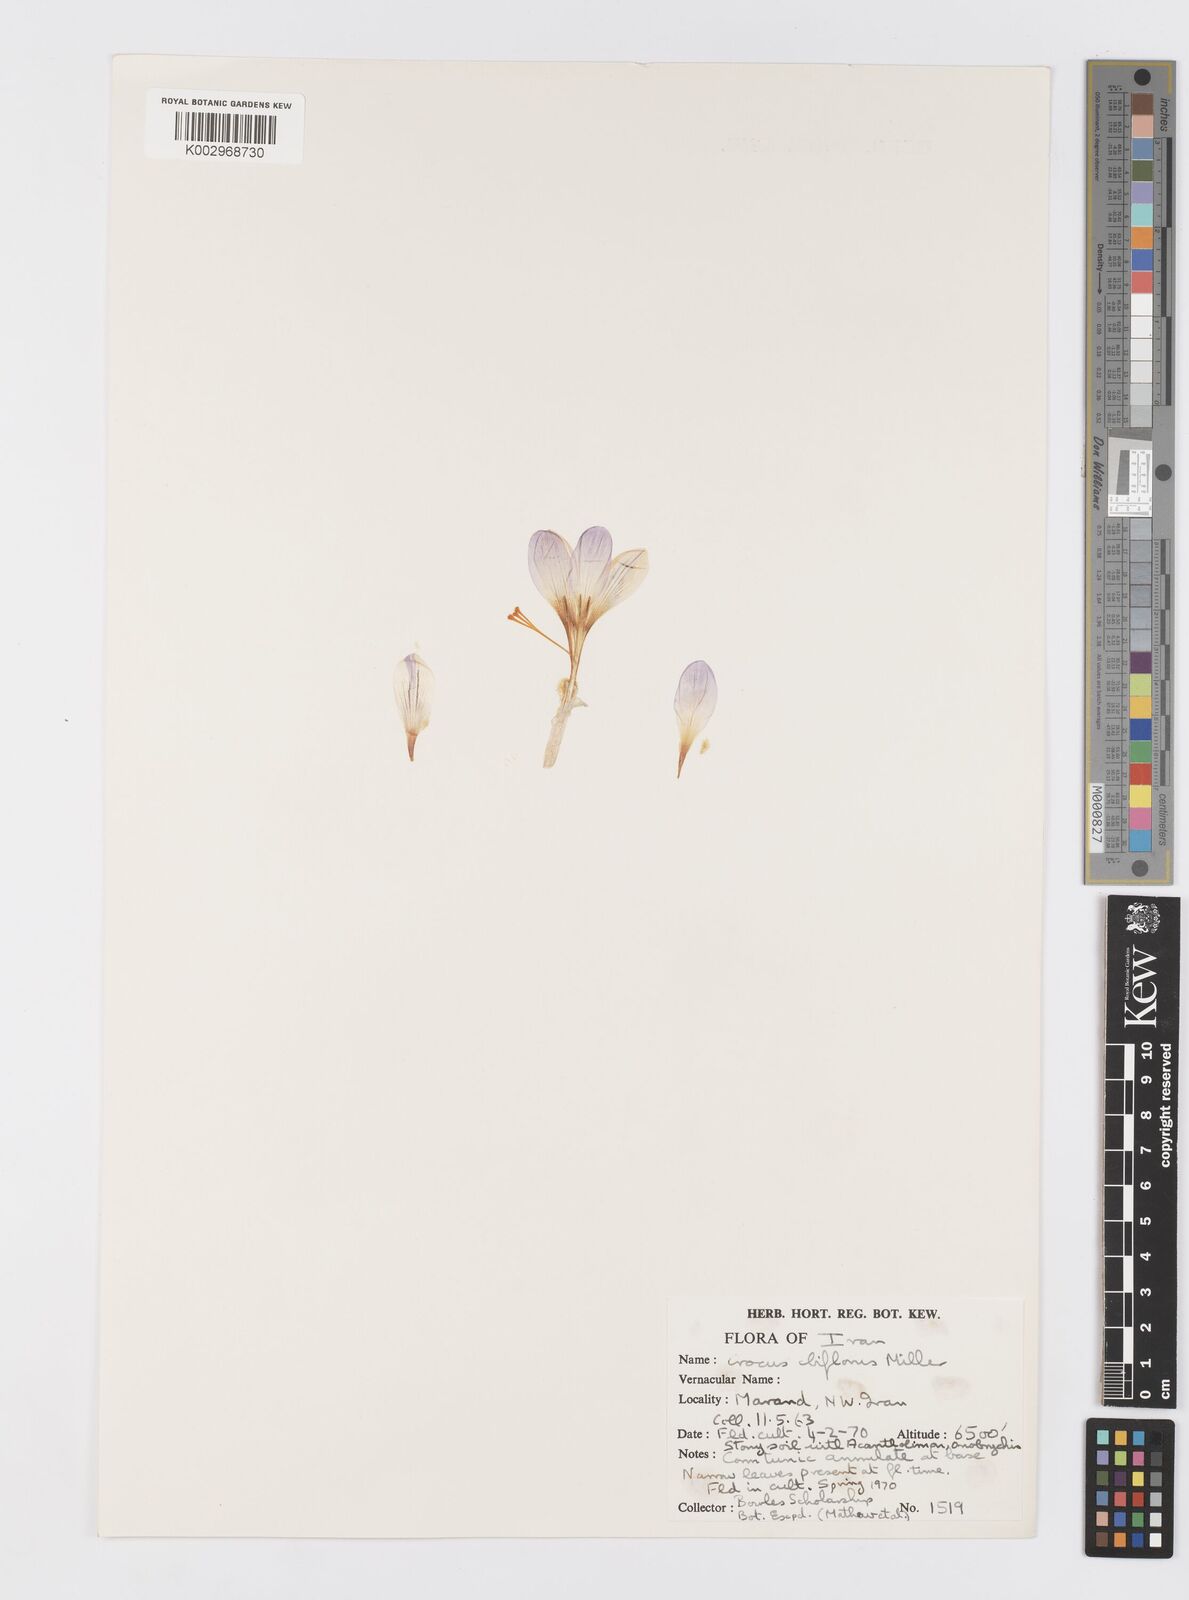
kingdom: Plantae
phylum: Tracheophyta
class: Liliopsida
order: Asparagales
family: Iridaceae
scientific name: Iridaceae
